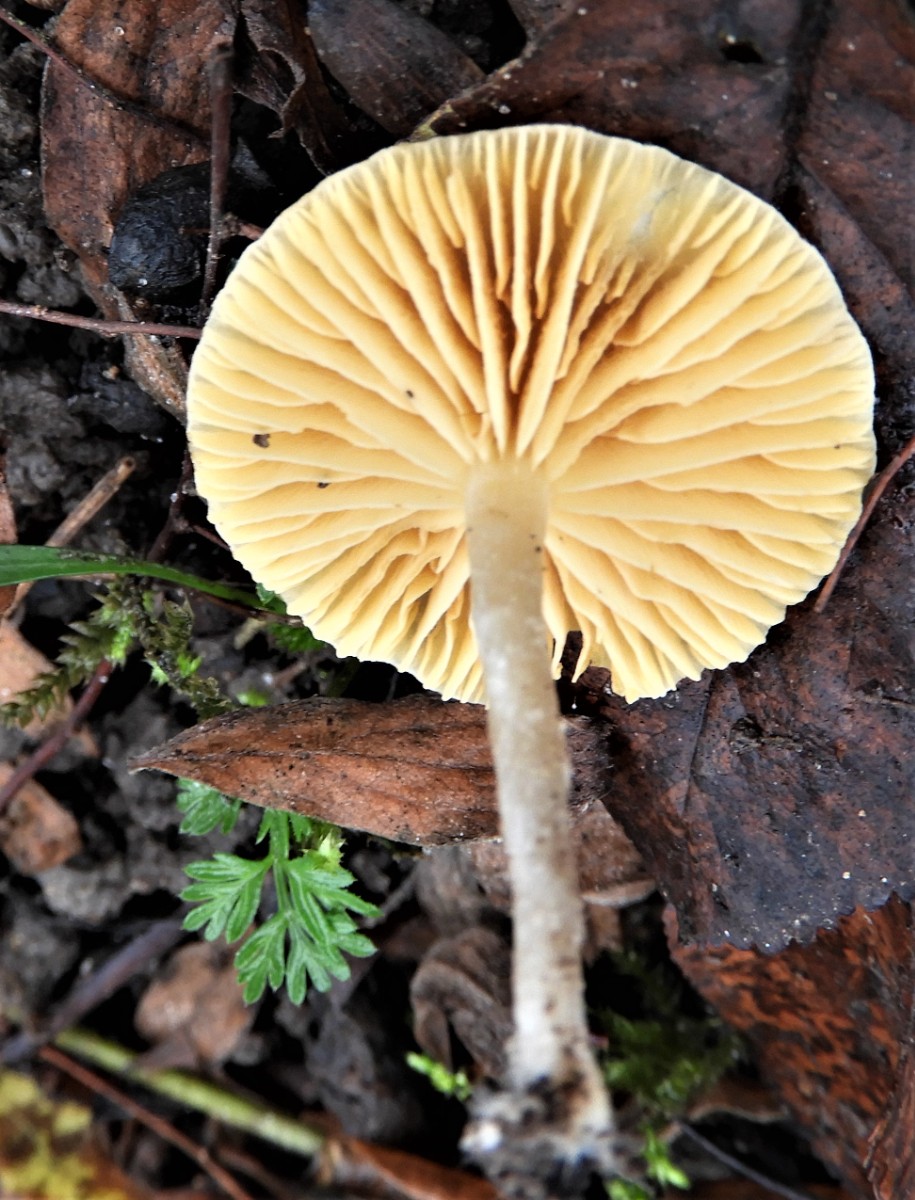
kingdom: Fungi
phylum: Basidiomycota
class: Agaricomycetes
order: Agaricales
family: Tubariaceae
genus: Tubaria
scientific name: Tubaria dispersa
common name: tjørne-fnughat
